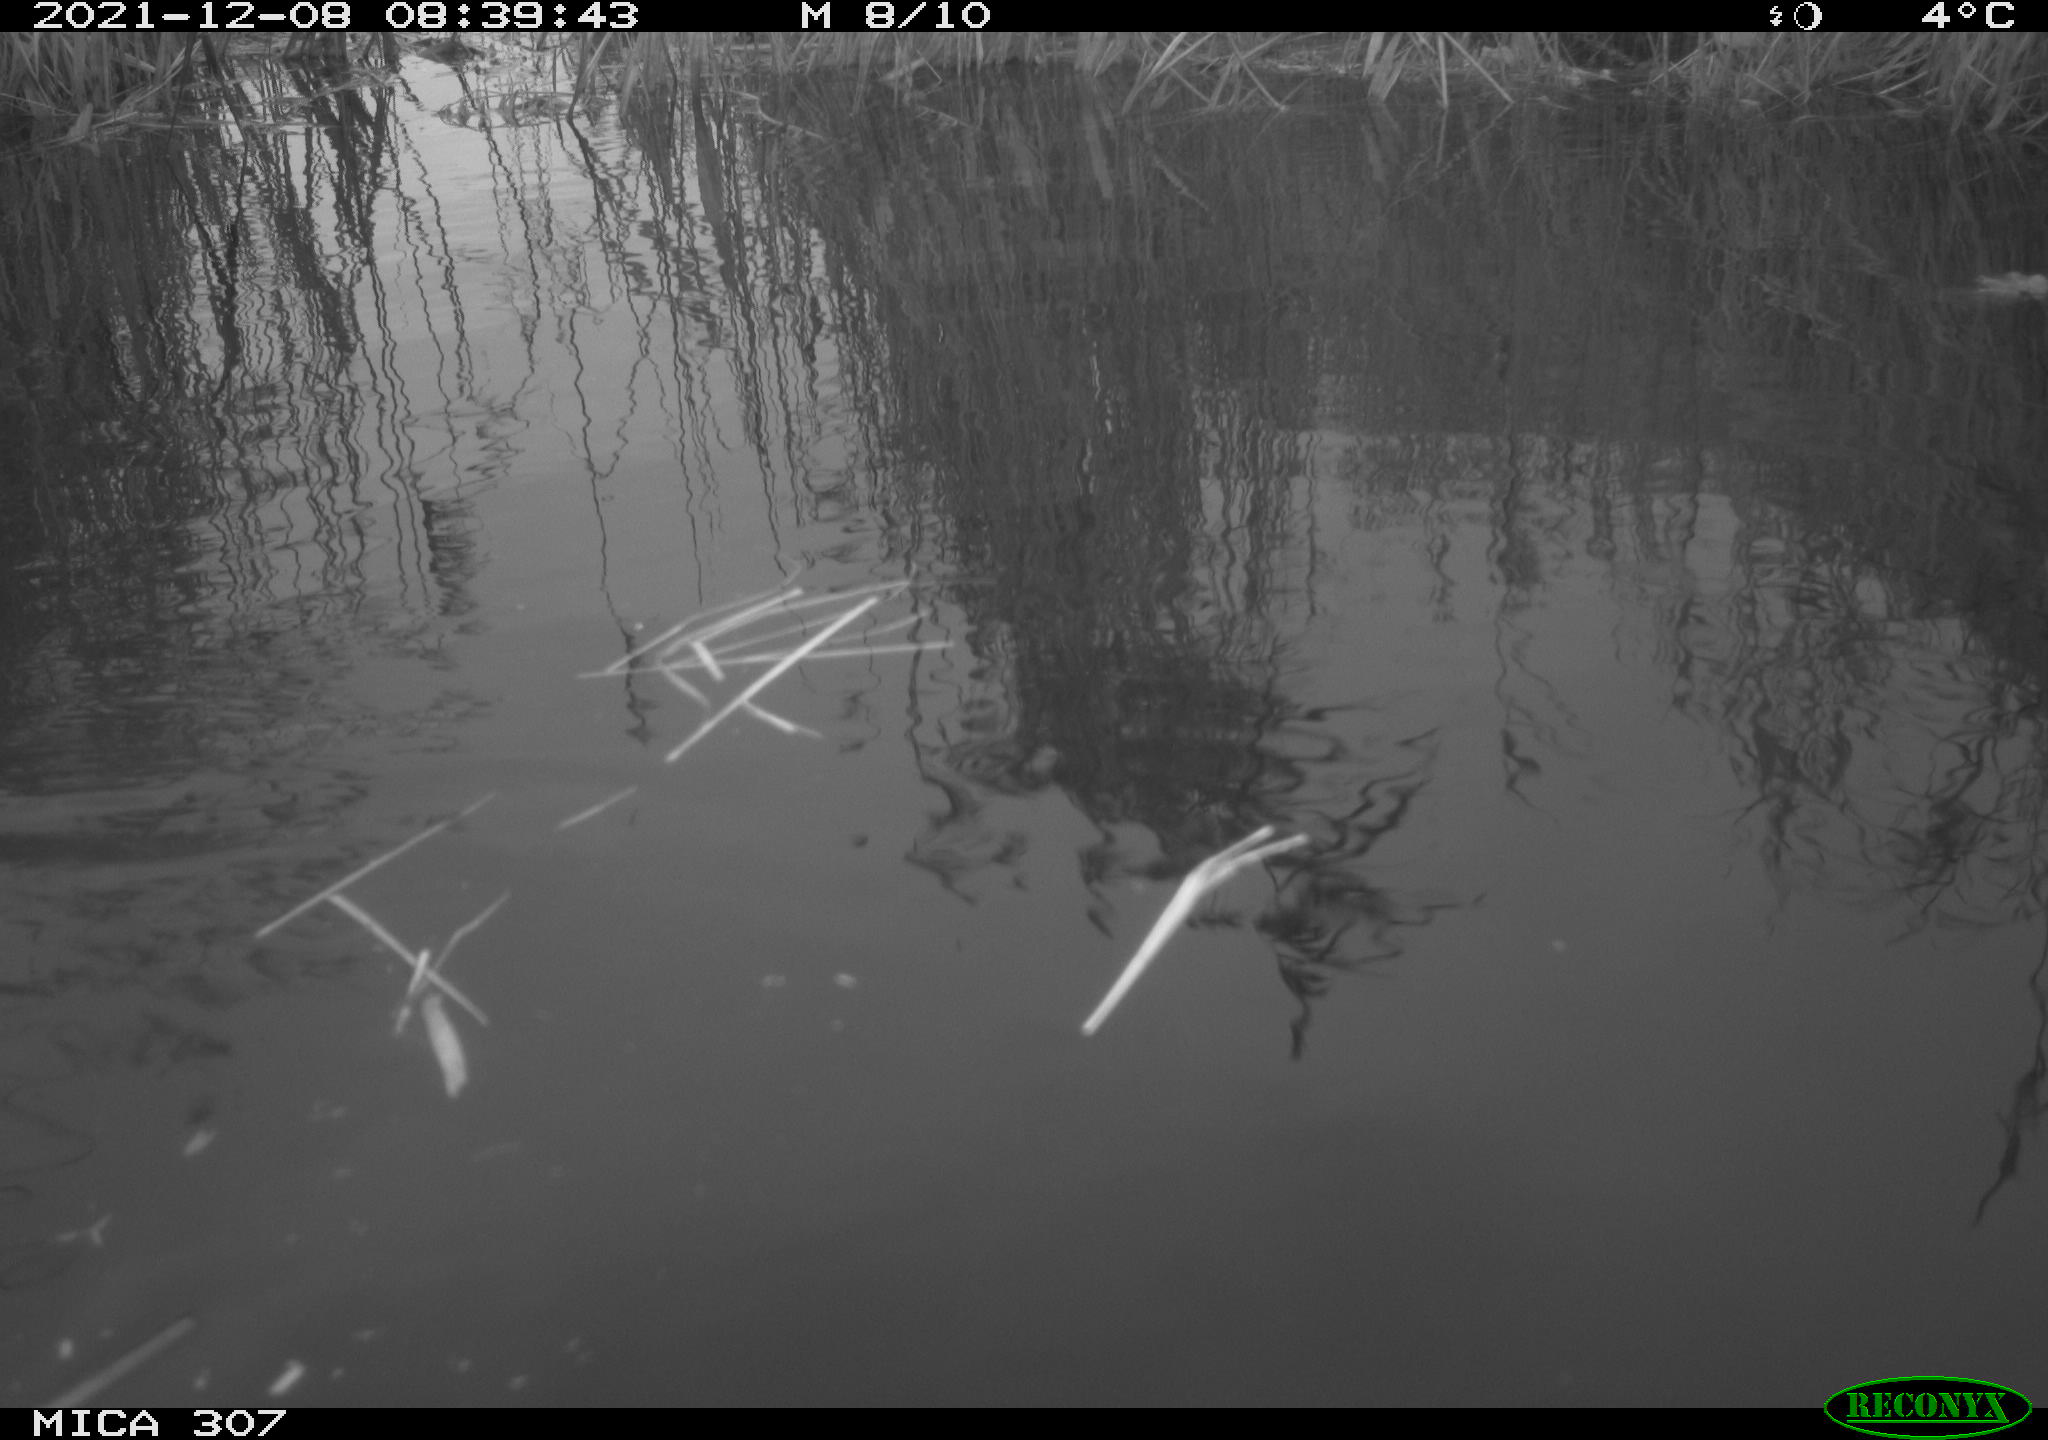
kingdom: Animalia
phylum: Chordata
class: Aves
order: Gruiformes
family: Rallidae
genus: Fulica
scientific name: Fulica atra
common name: Eurasian coot
